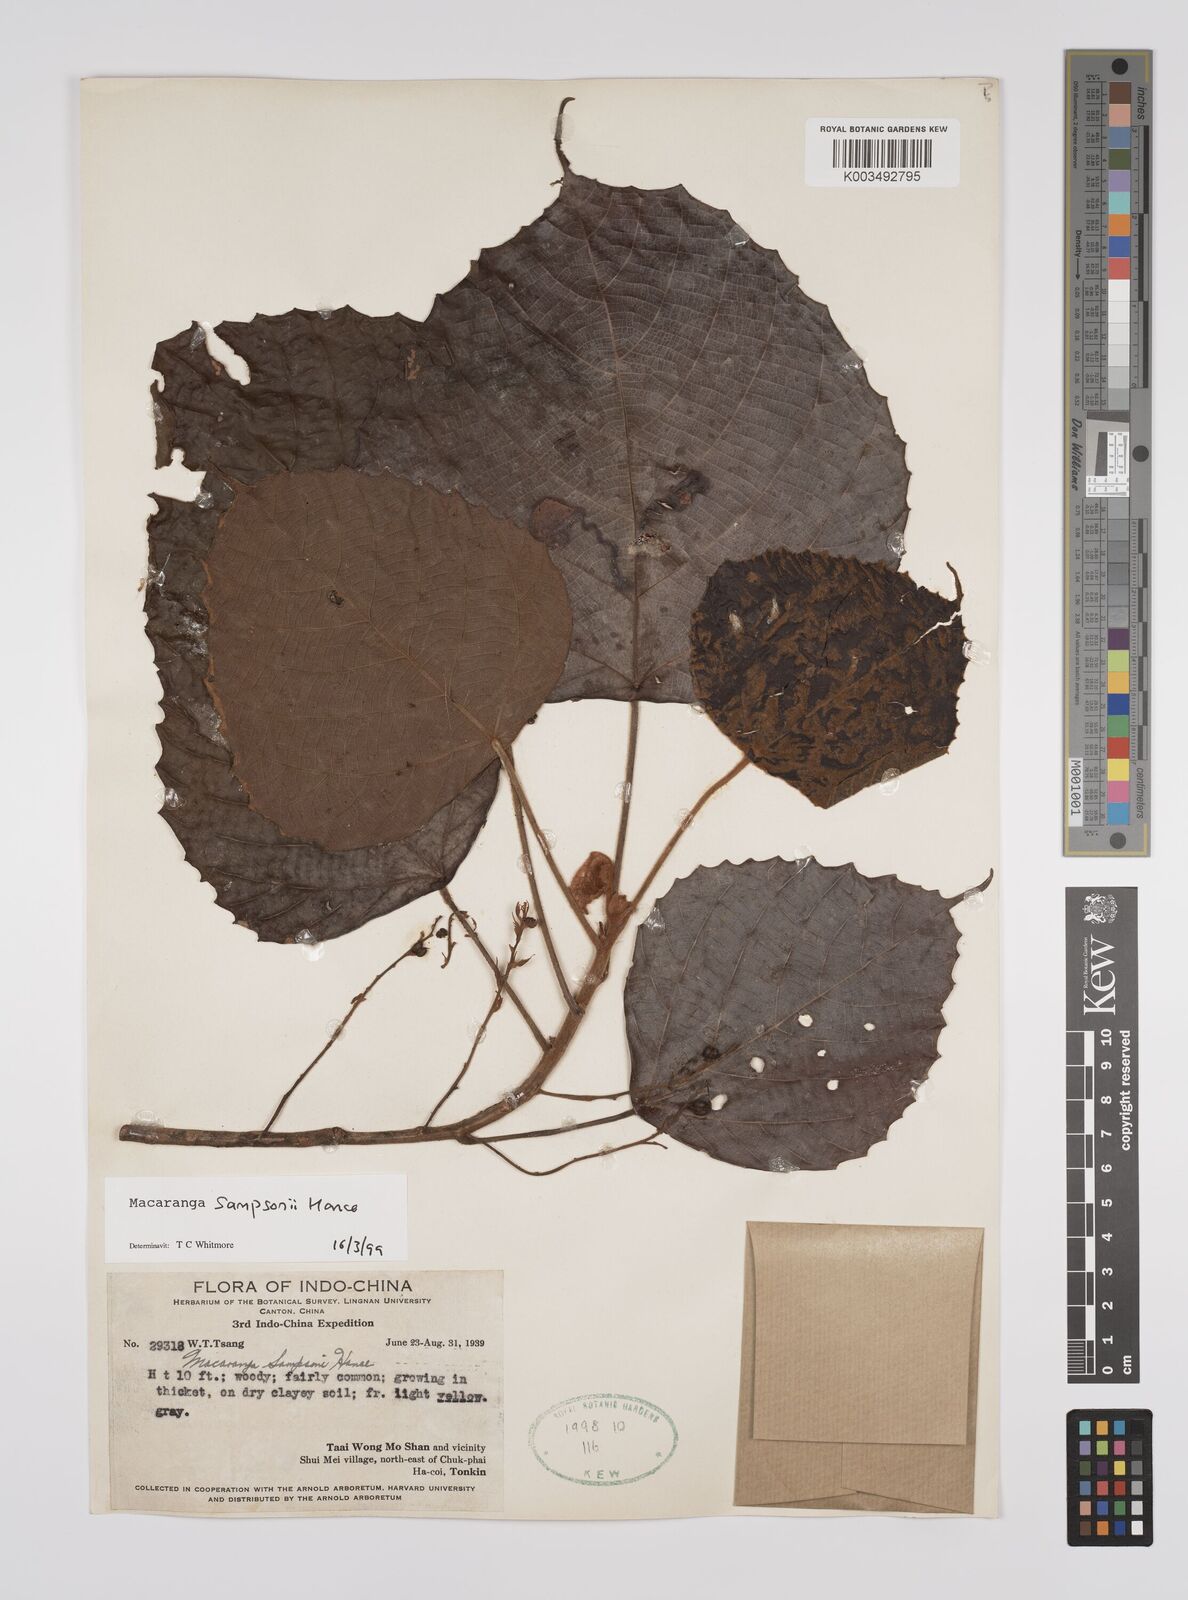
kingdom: Plantae
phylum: Tracheophyta
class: Magnoliopsida
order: Malpighiales
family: Euphorbiaceae
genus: Macaranga
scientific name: Macaranga sampsonii
